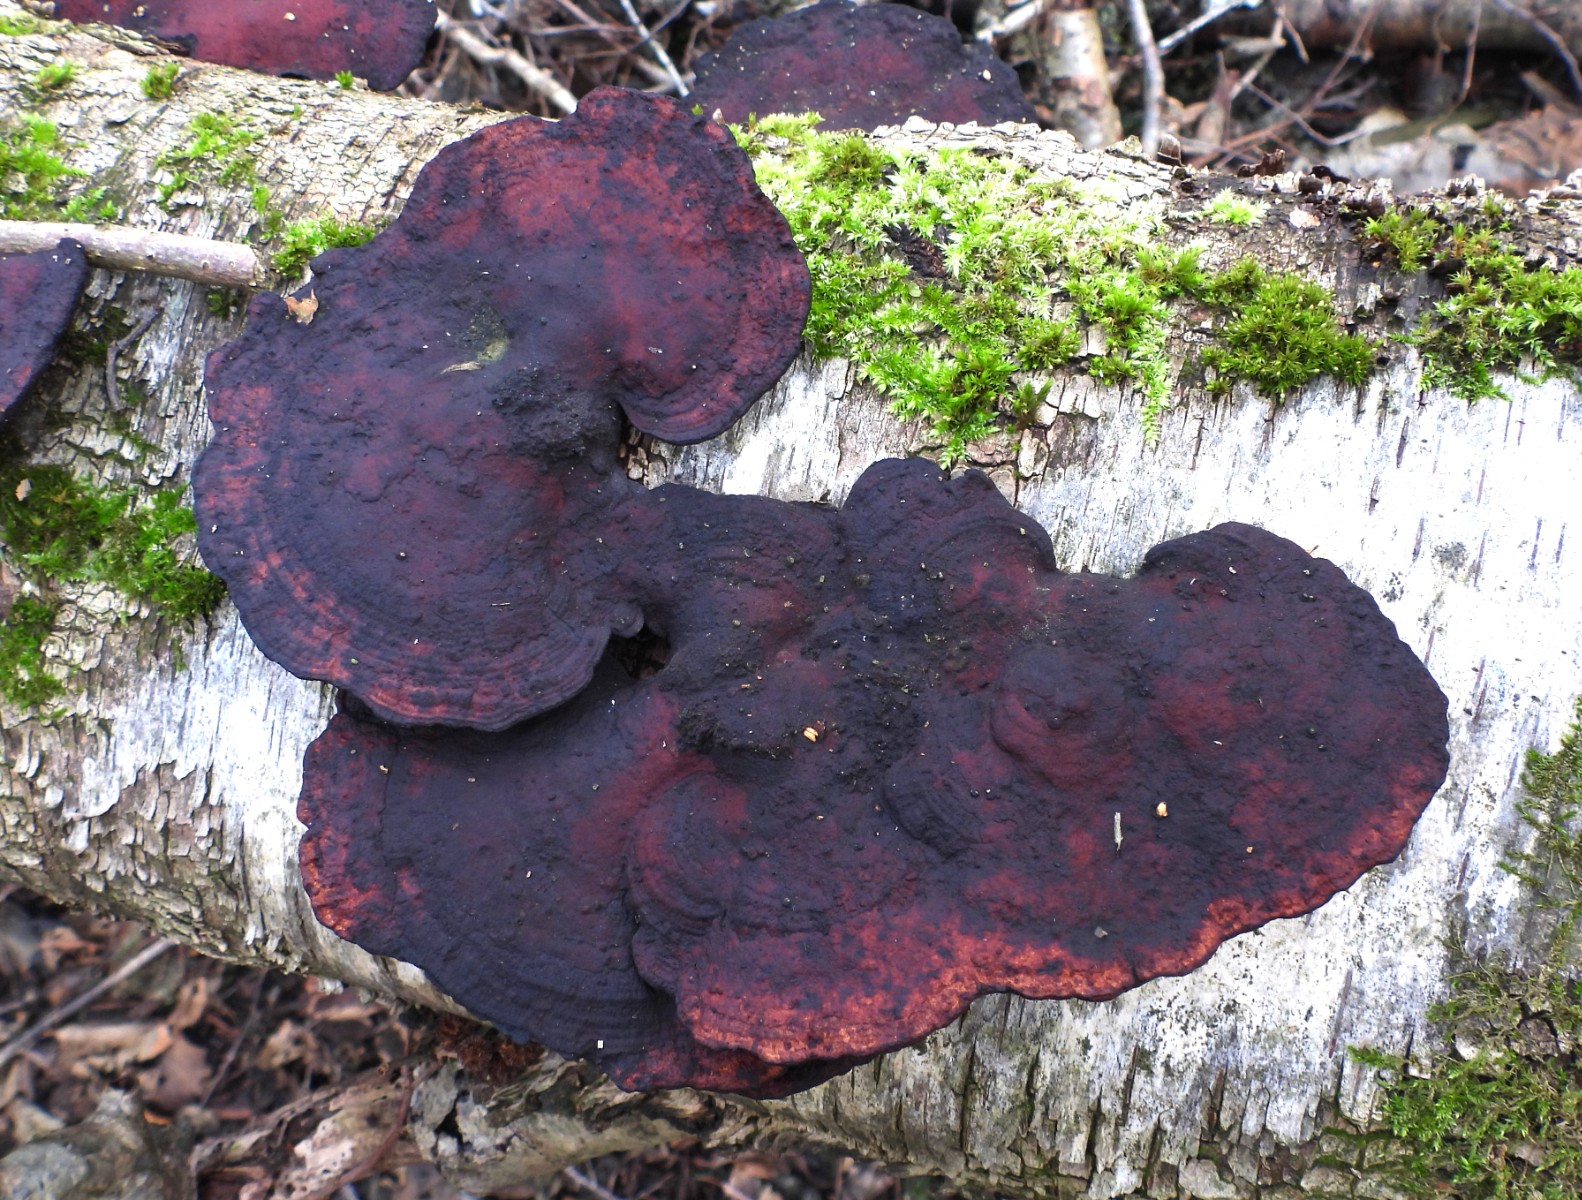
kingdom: Fungi
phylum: Basidiomycota
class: Agaricomycetes
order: Polyporales
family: Polyporaceae
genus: Daedaleopsis
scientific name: Daedaleopsis confragosa
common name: rødmende læderporesvamp
